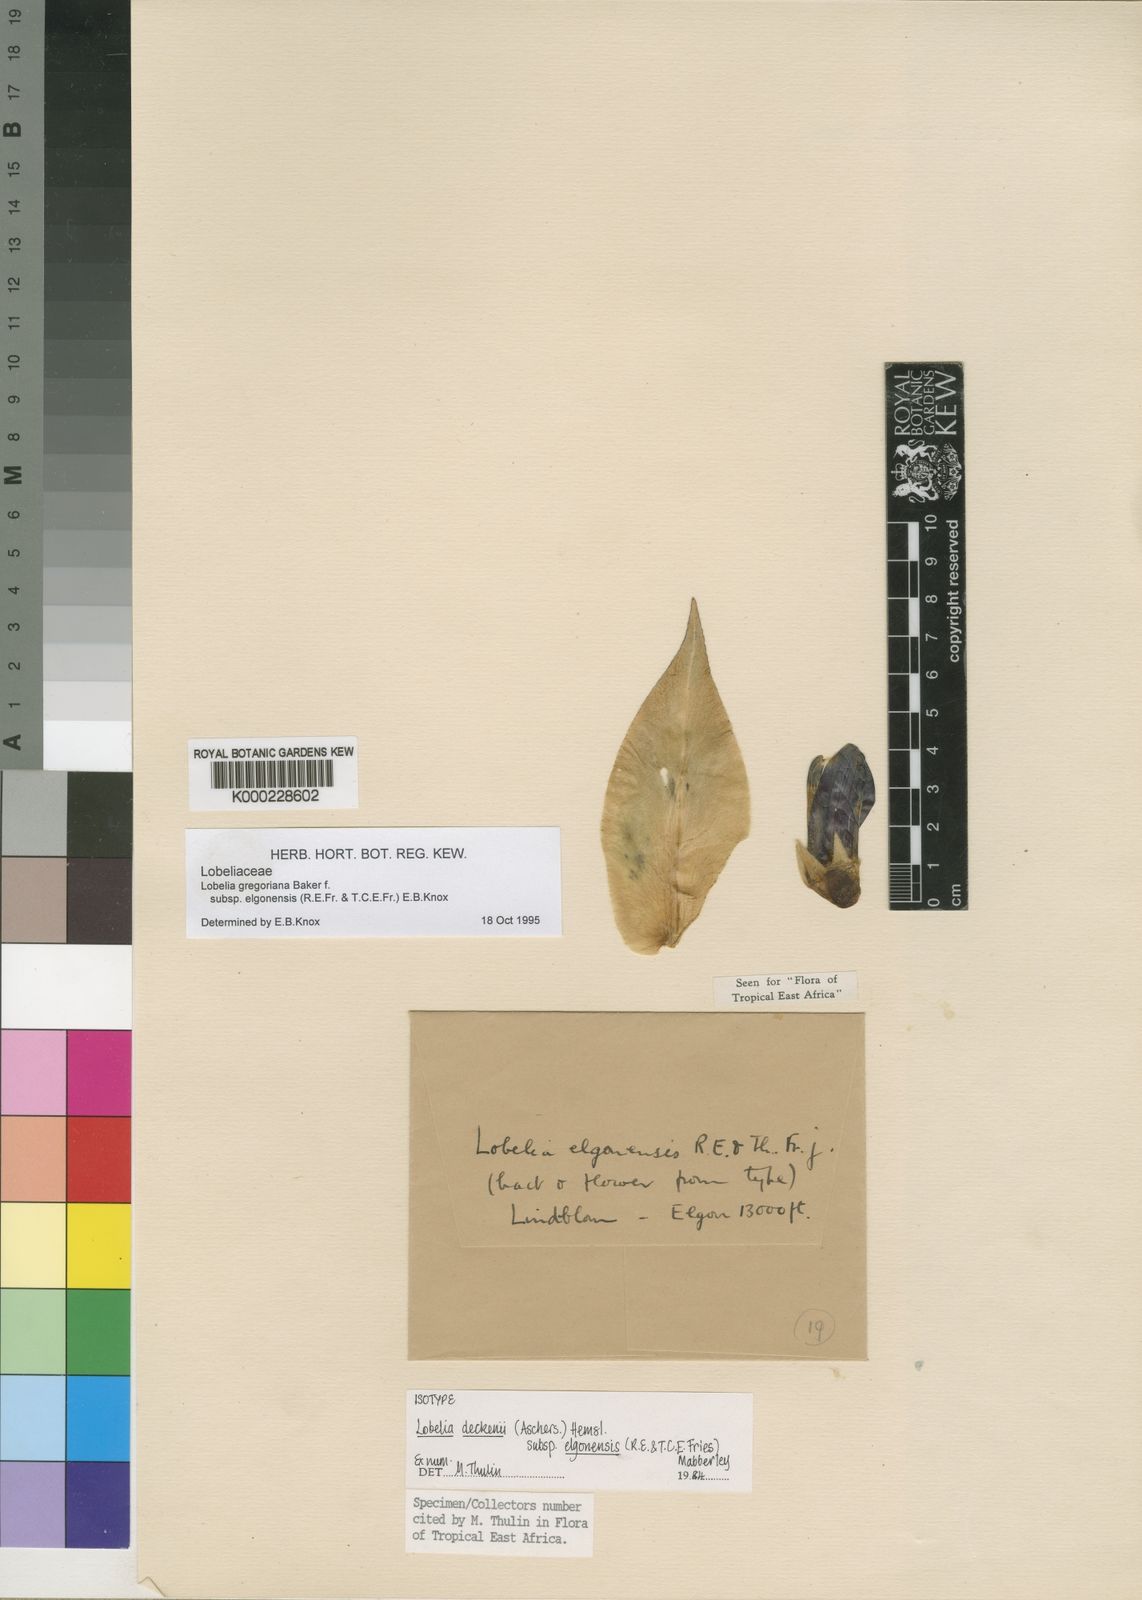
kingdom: Plantae
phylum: Tracheophyta
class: Magnoliopsida
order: Asterales
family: Campanulaceae
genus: Lobelia
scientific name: Lobelia gregoriana
